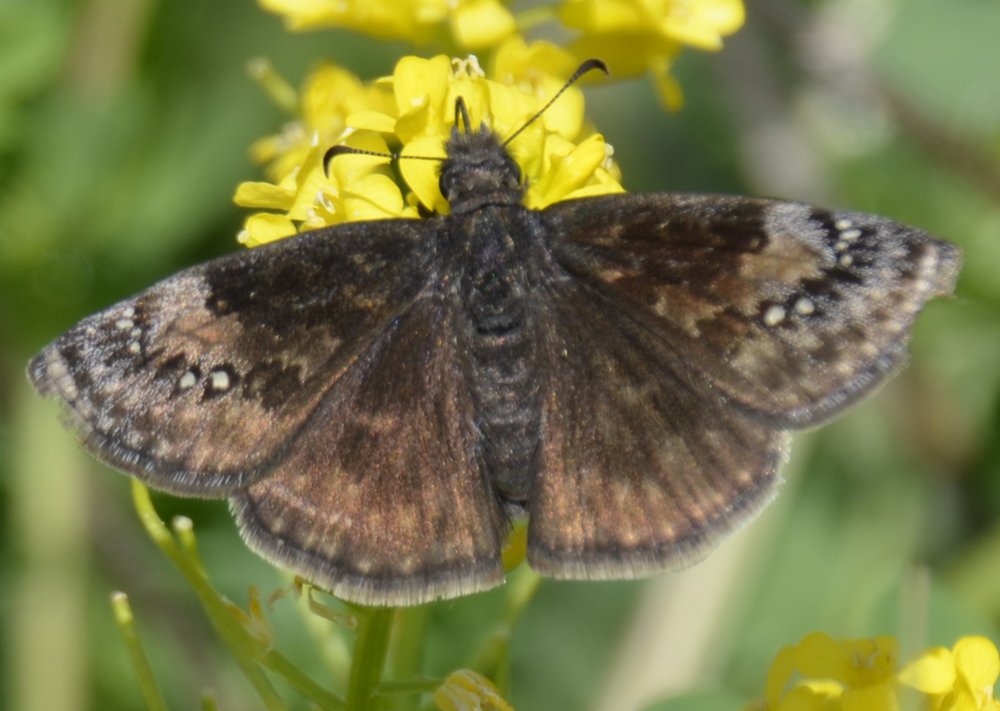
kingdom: Animalia
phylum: Arthropoda
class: Insecta
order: Lepidoptera
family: Hesperiidae
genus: Erynnis
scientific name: Erynnis
